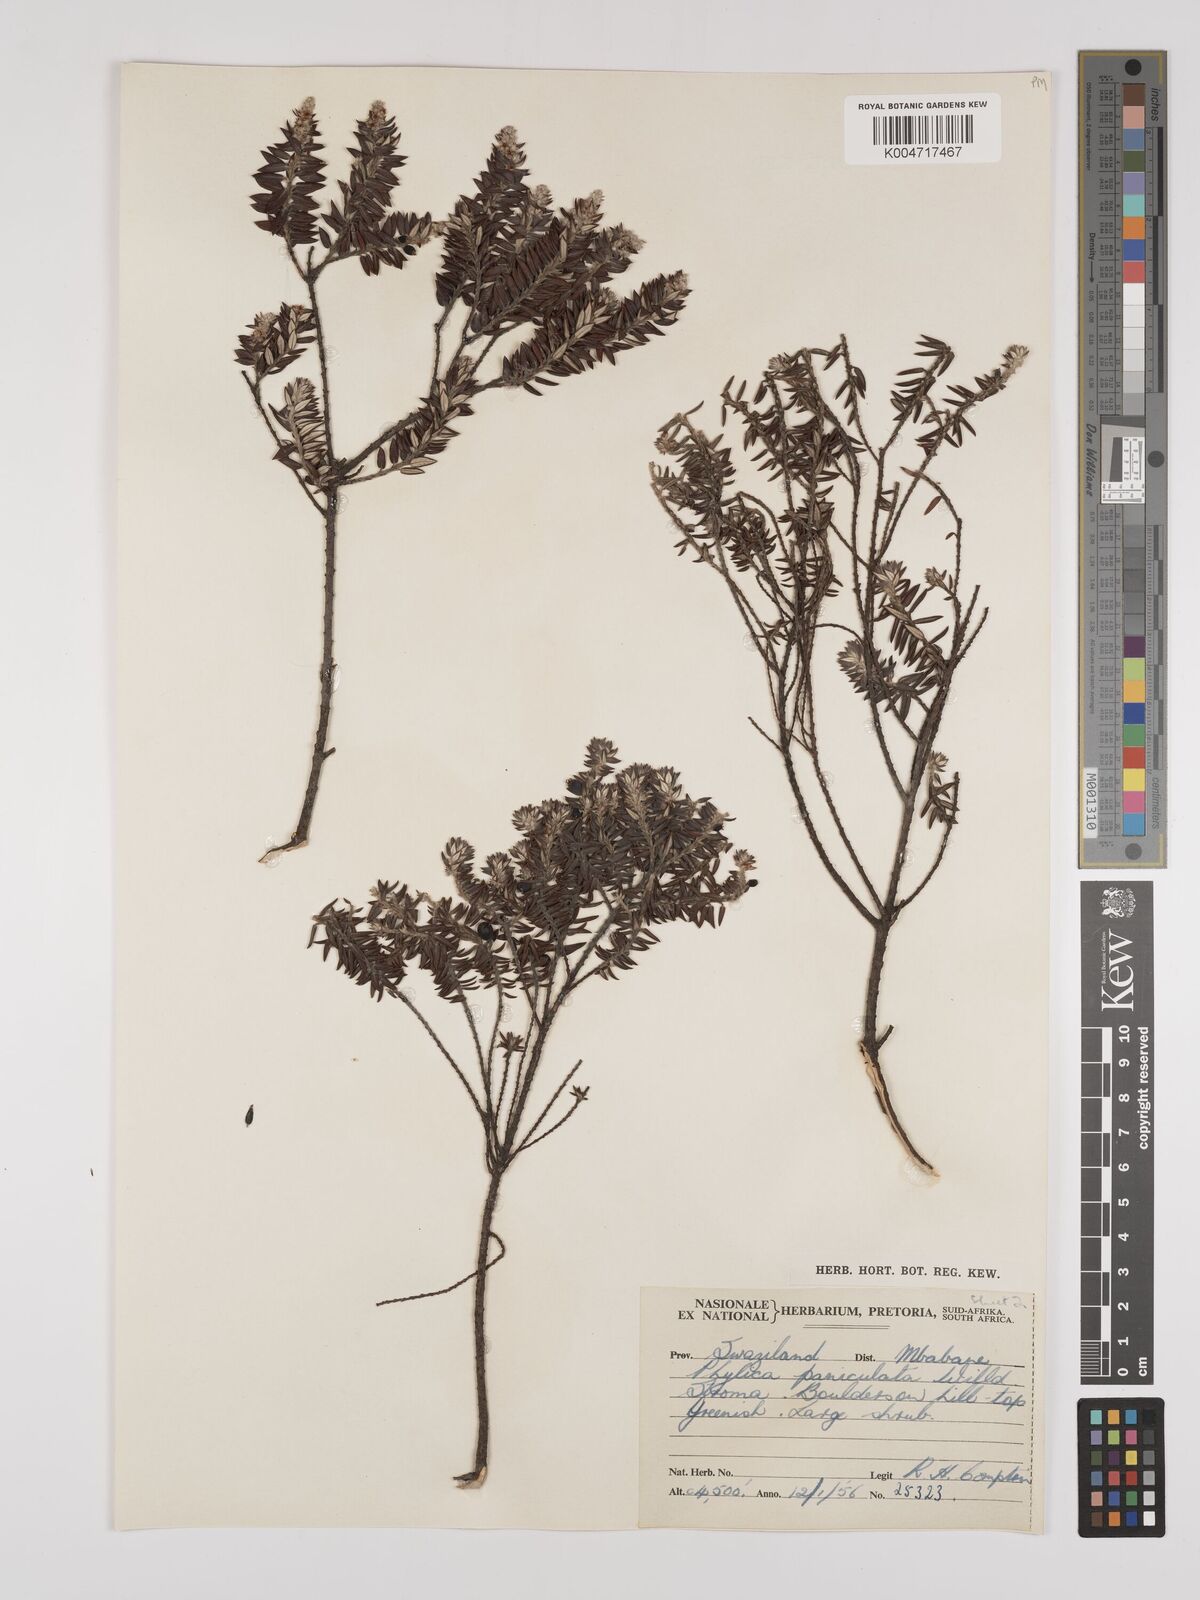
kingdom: Plantae
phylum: Tracheophyta
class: Magnoliopsida
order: Rosales
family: Rhamnaceae
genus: Phylica
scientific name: Phylica paniculata
